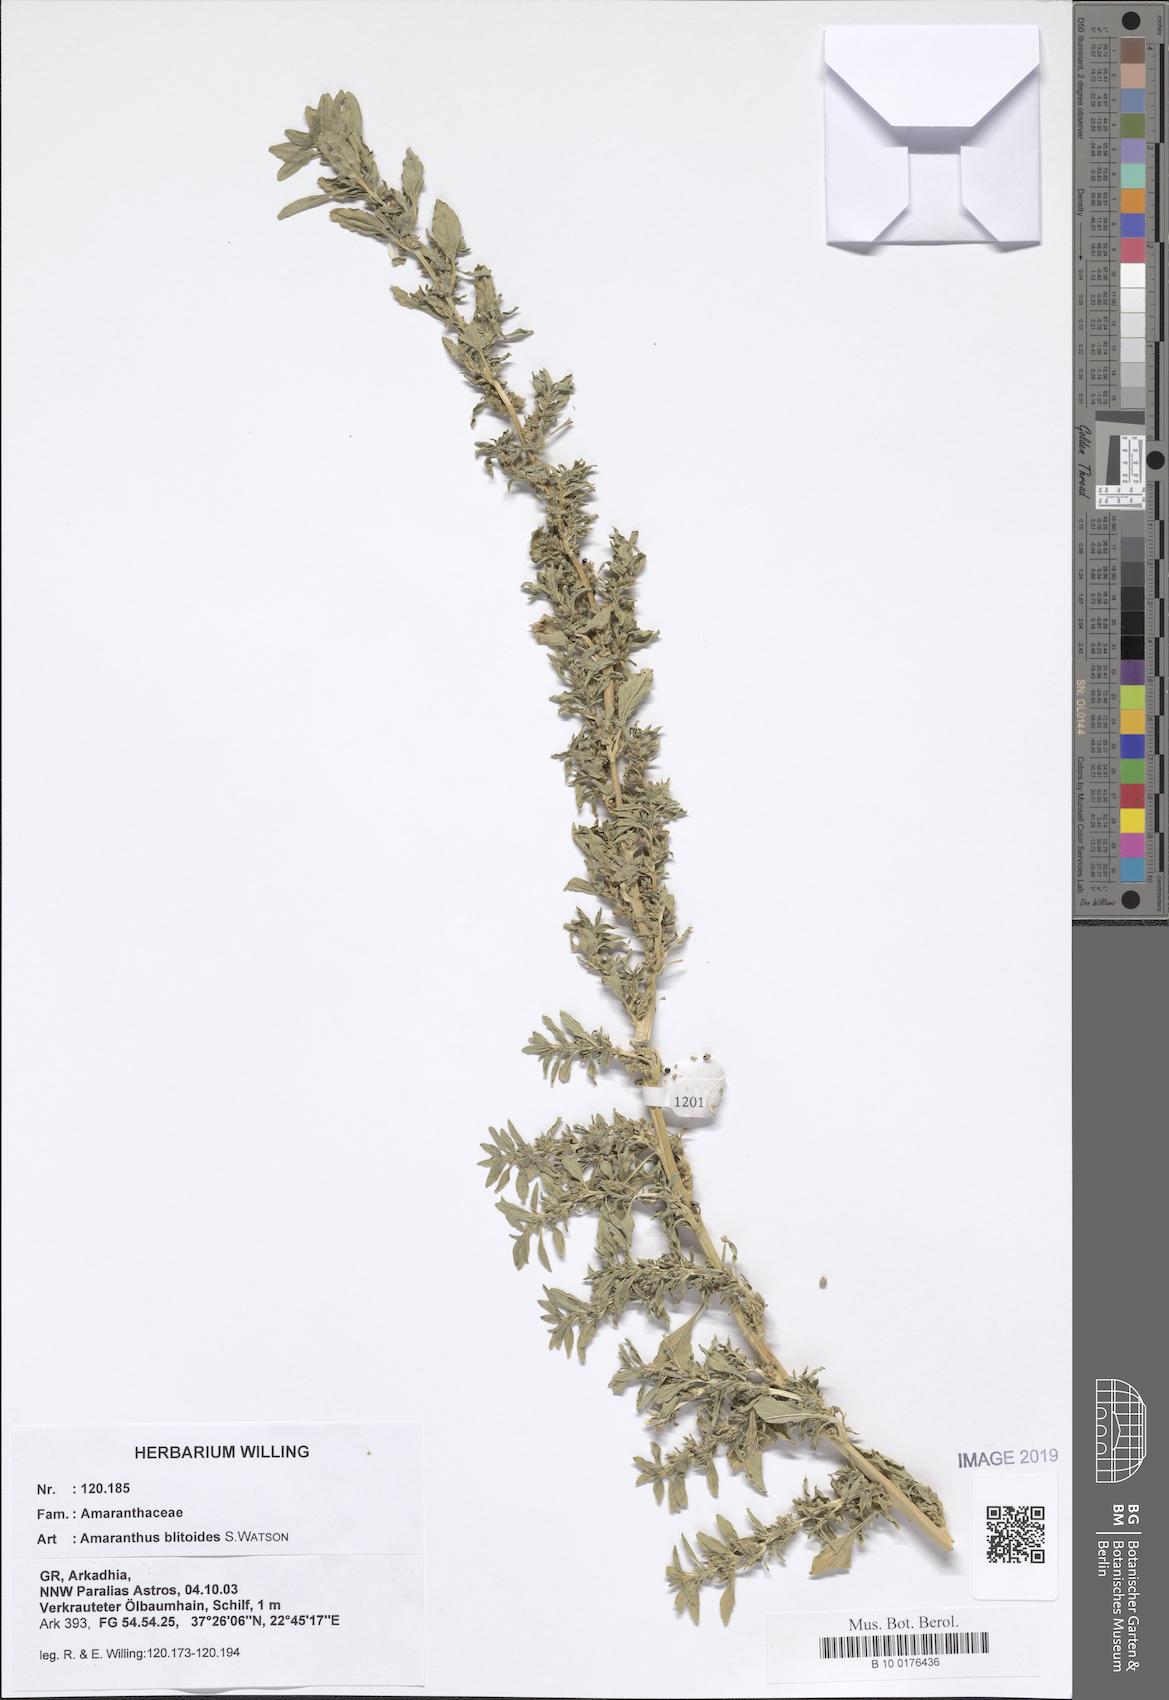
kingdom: Plantae
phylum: Tracheophyta
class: Magnoliopsida
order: Caryophyllales
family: Amaranthaceae
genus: Amaranthus
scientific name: Amaranthus blitoides
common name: Prostrate pigweed
